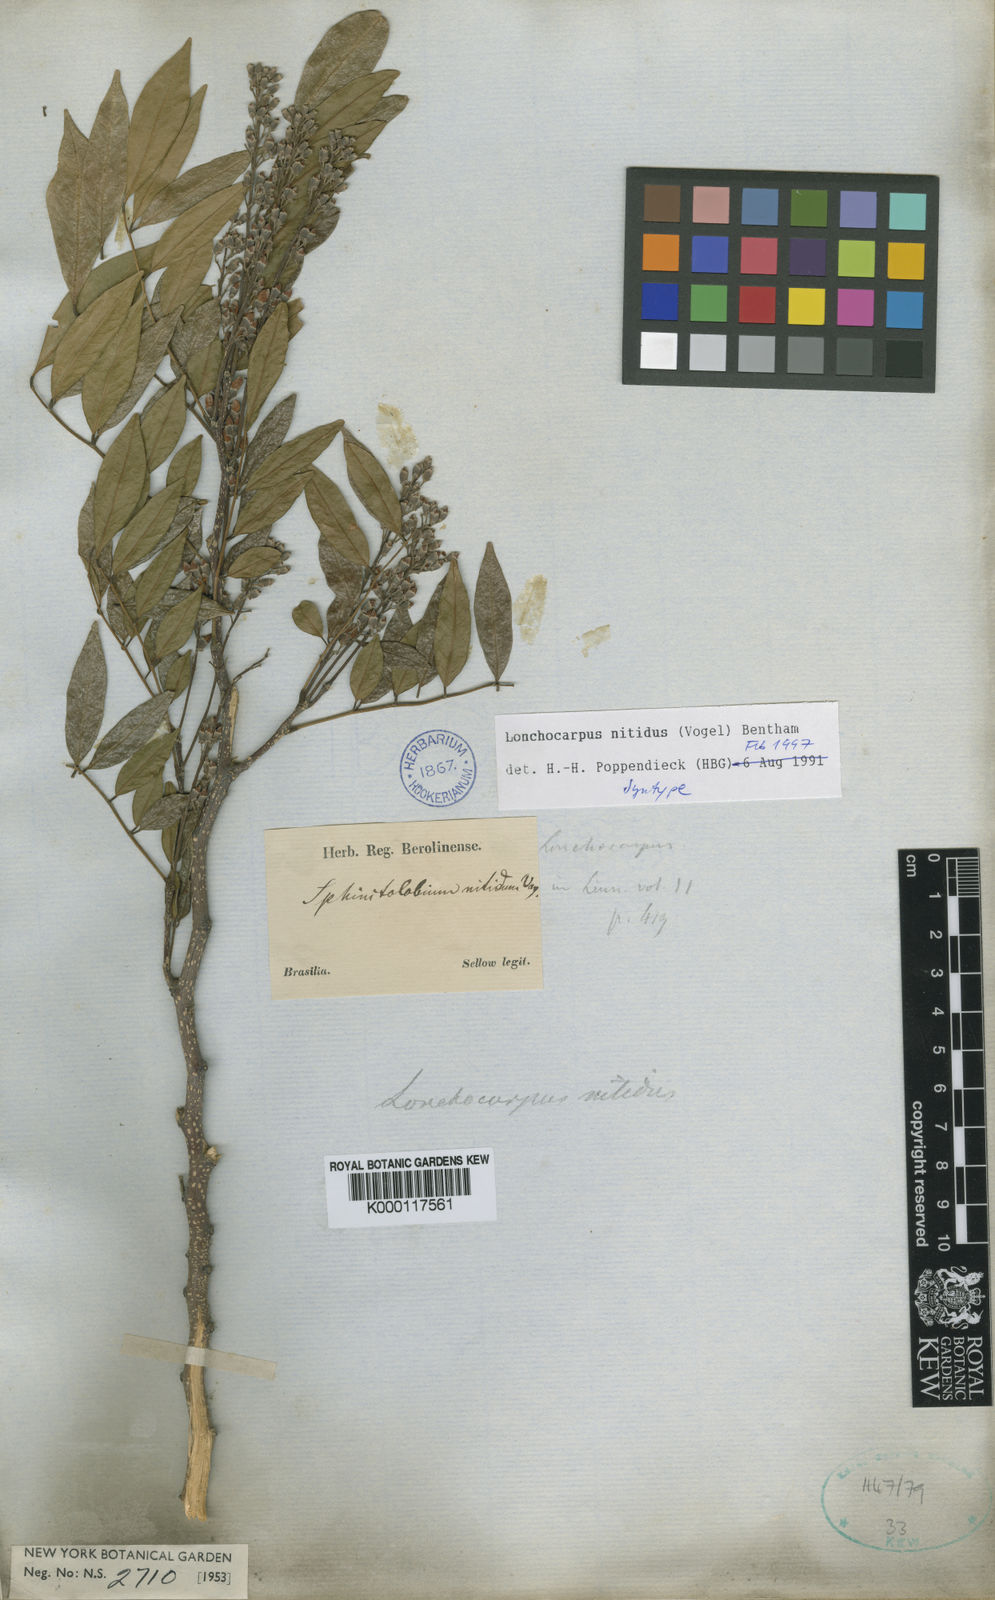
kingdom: Plantae
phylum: Tracheophyta
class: Magnoliopsida
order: Fabales
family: Fabaceae
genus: Lonchocarpus
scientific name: Lonchocarpus nitidus
